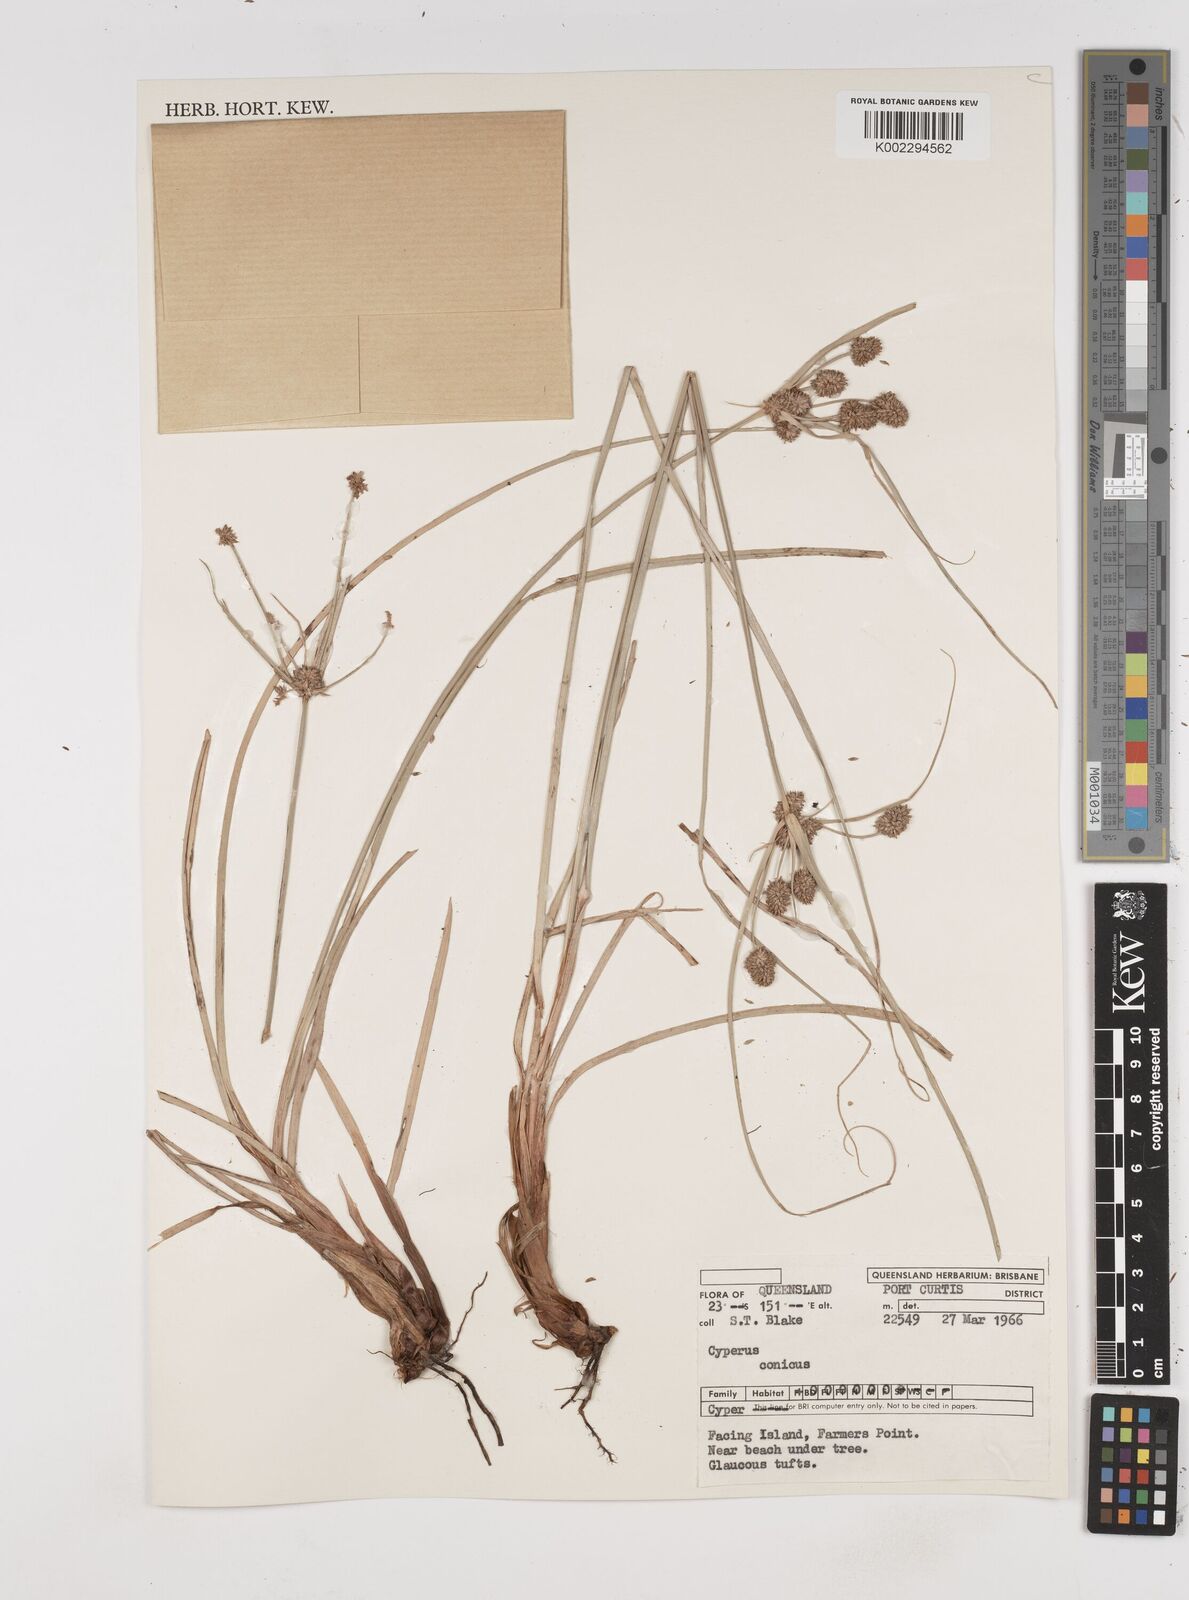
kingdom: Plantae
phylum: Tracheophyta
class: Liliopsida
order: Poales
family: Cyperaceae
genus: Cyperus
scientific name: Cyperus conicus
